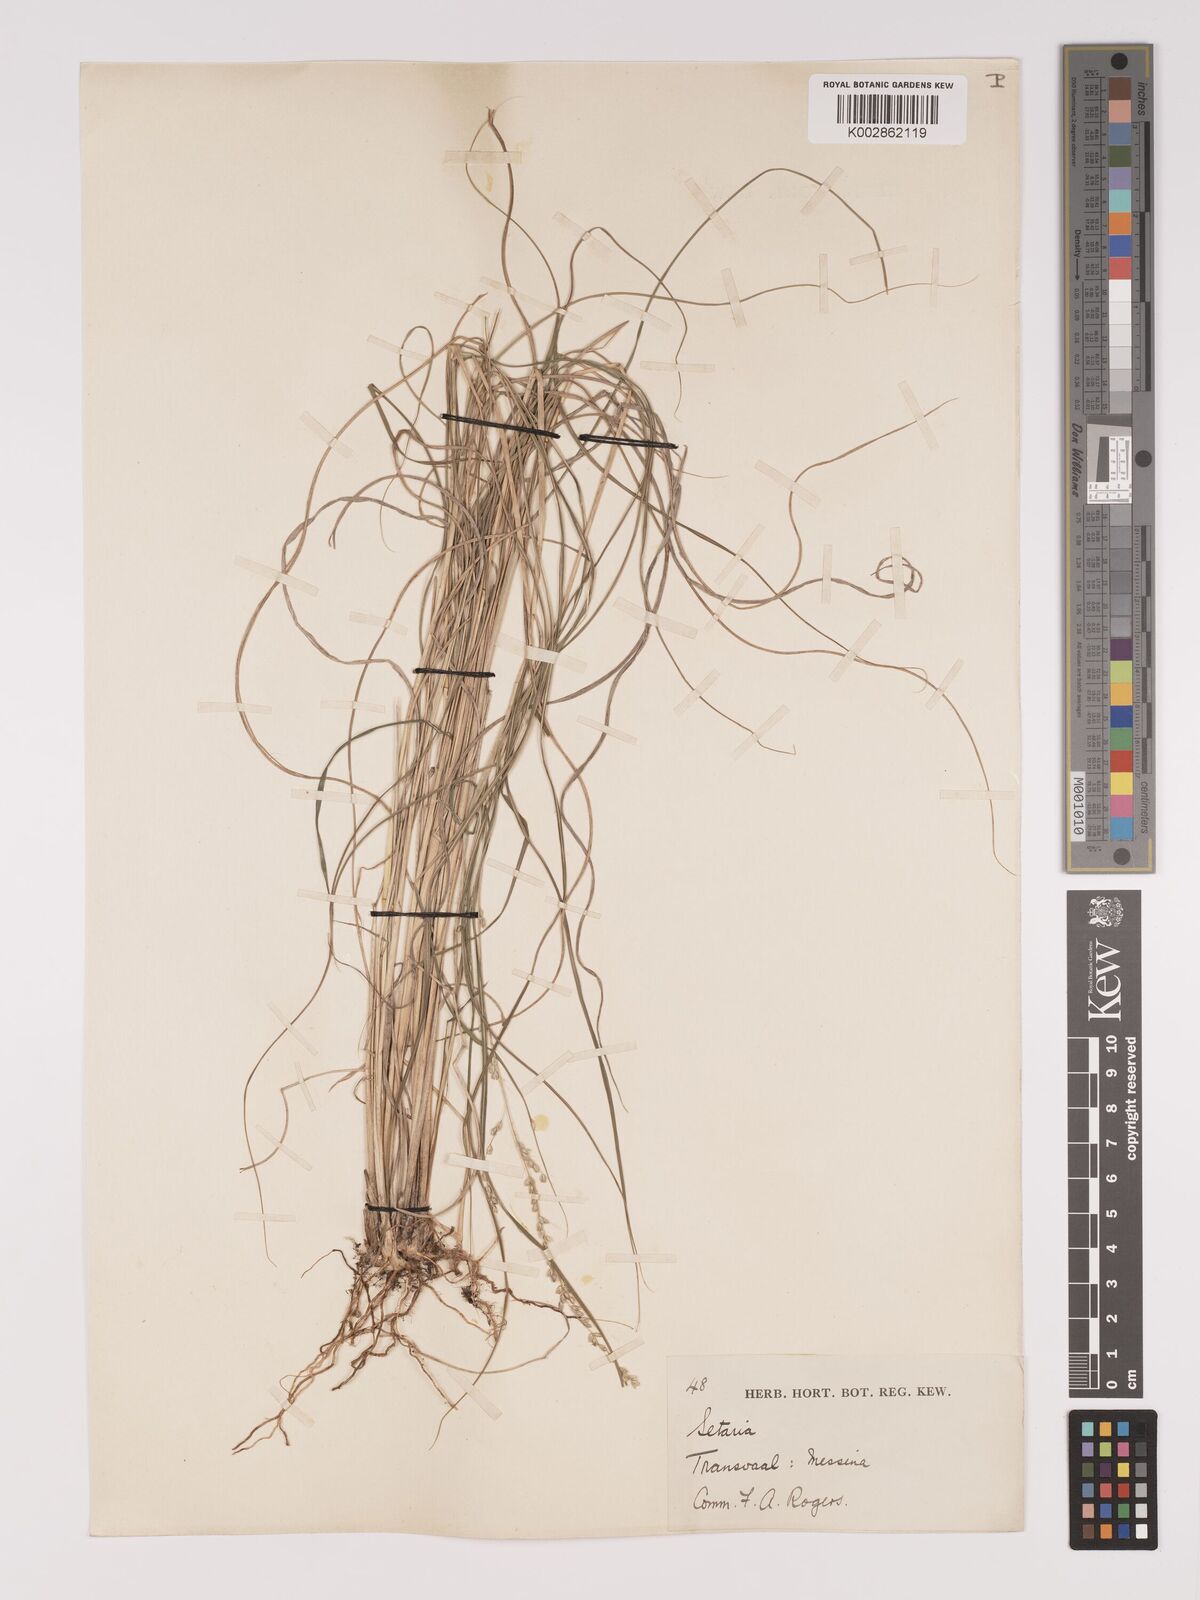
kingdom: Plantae
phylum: Tracheophyta
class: Liliopsida
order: Poales
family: Poaceae
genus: Setaria
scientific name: Setaria lindenbergiana
